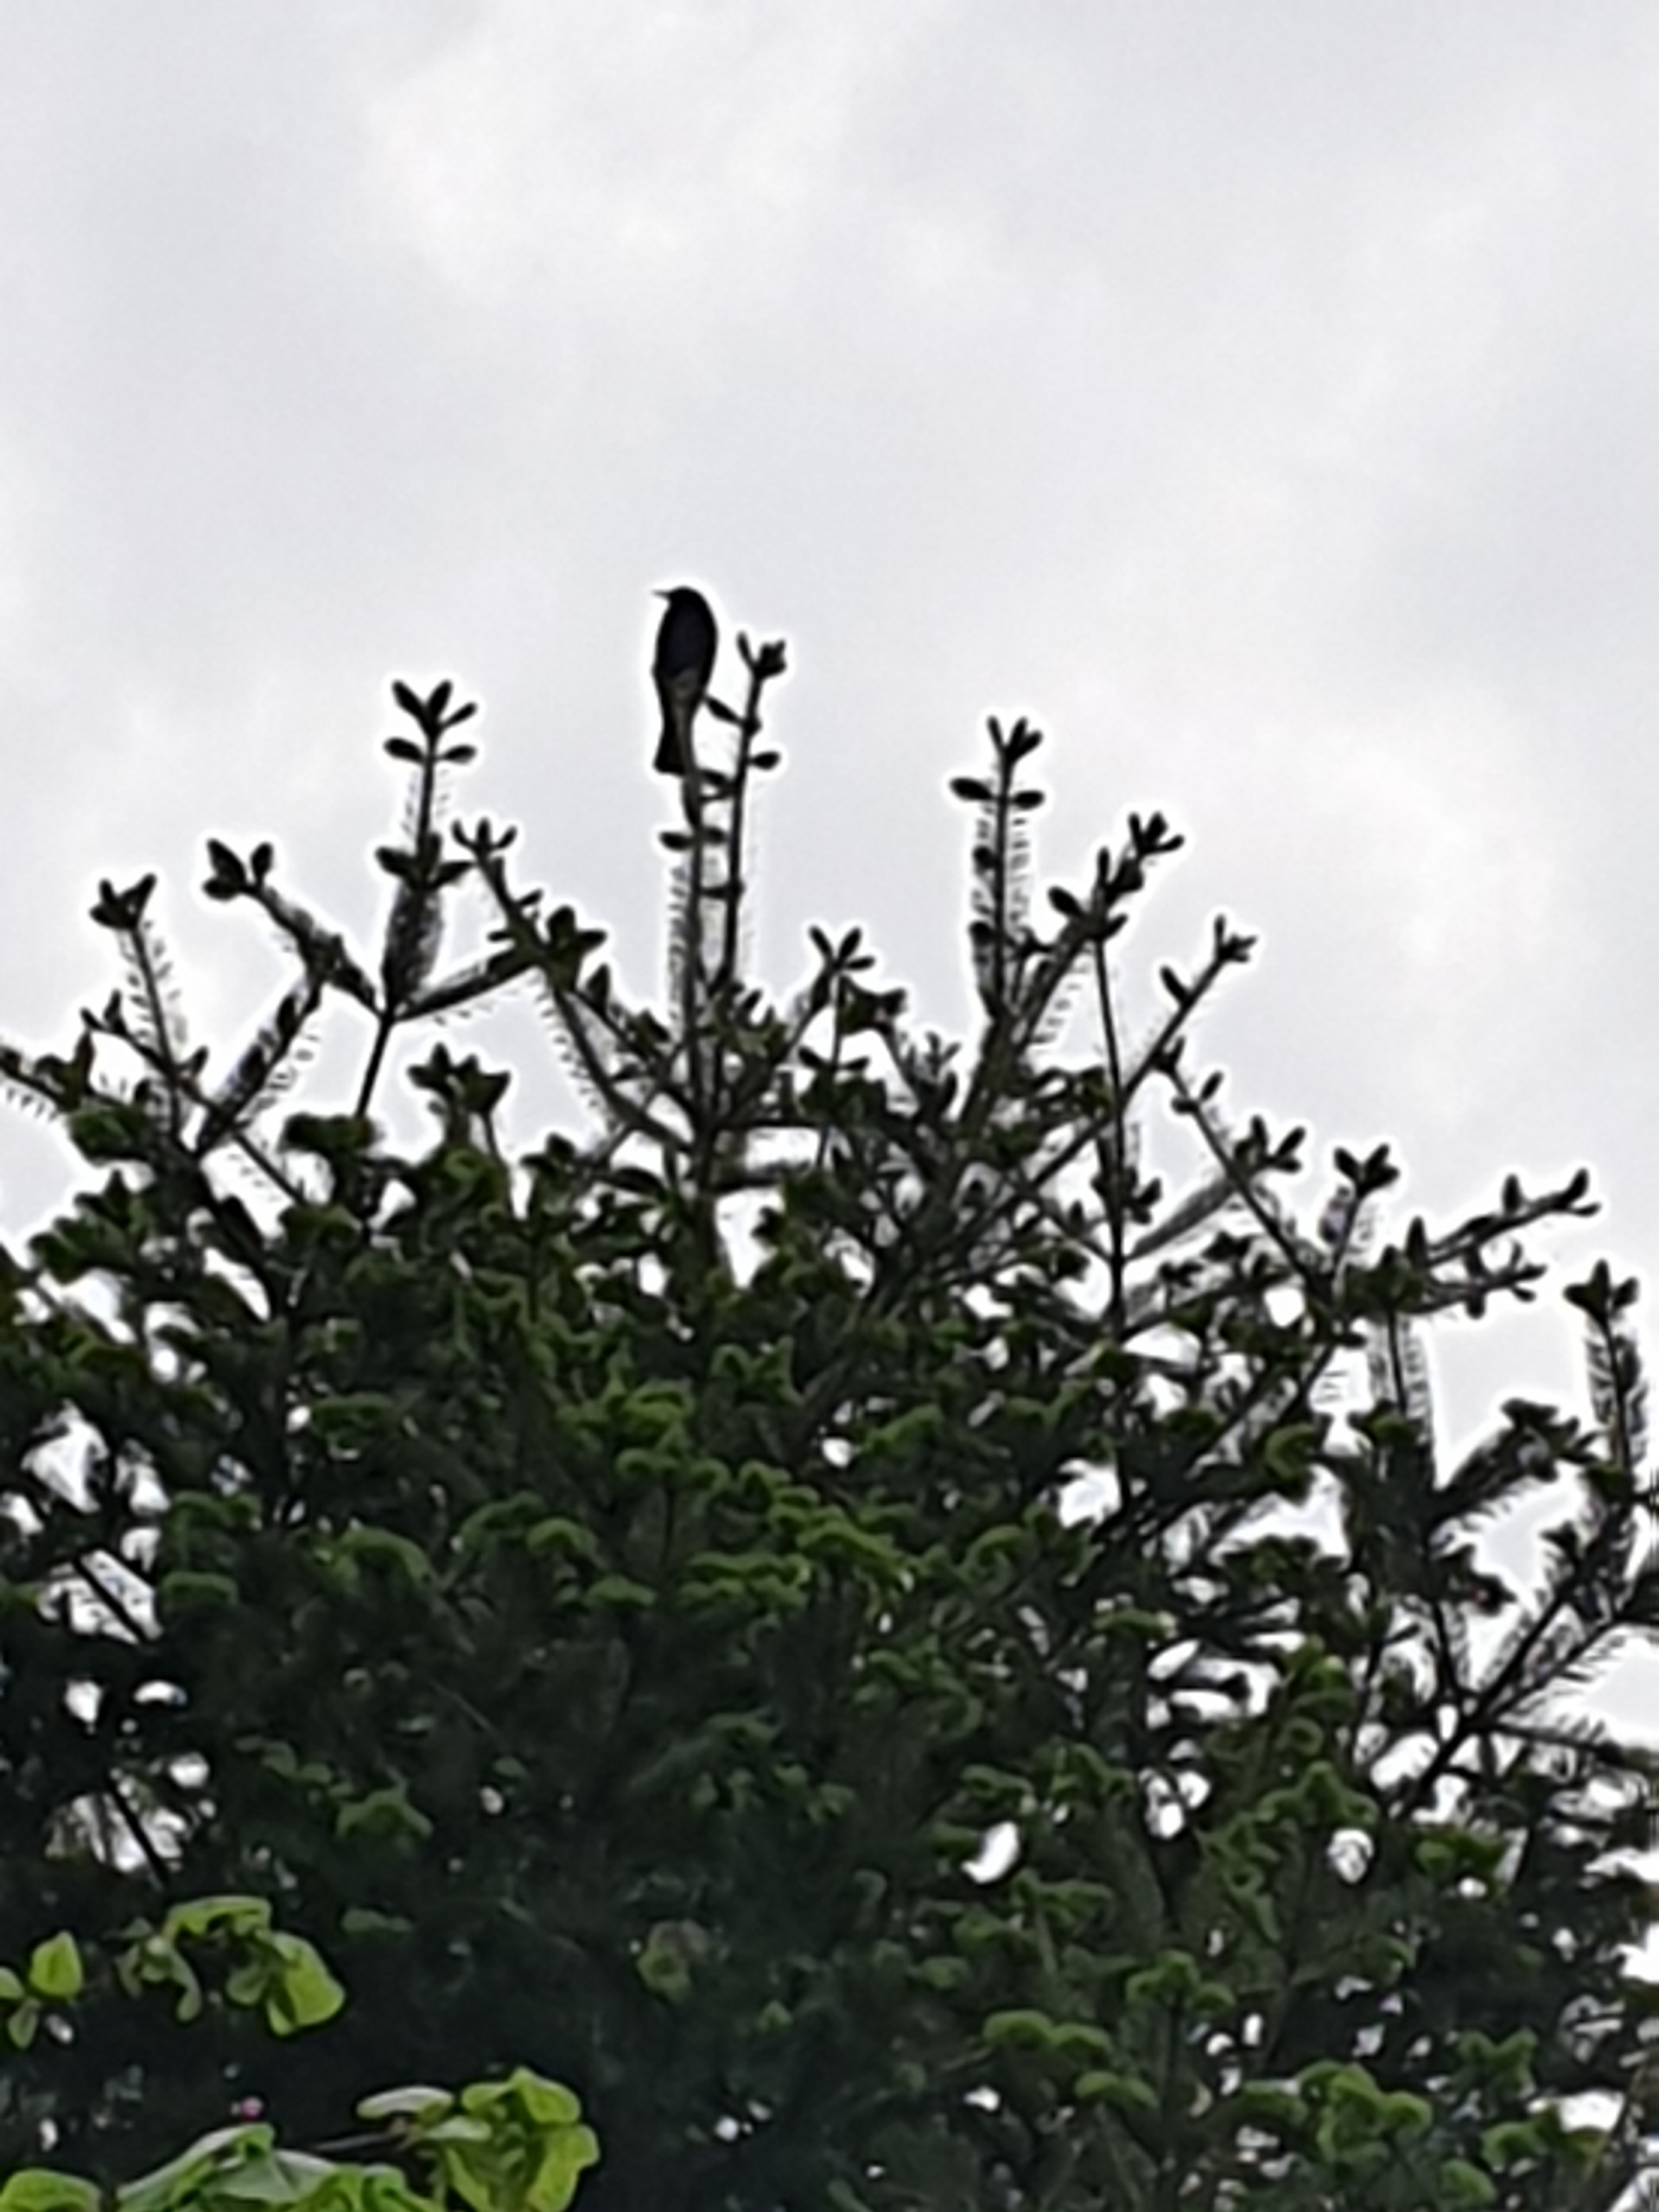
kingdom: Animalia
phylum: Chordata
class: Aves
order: Passeriformes
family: Turdidae
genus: Turdus
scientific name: Turdus merula
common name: Solsort
